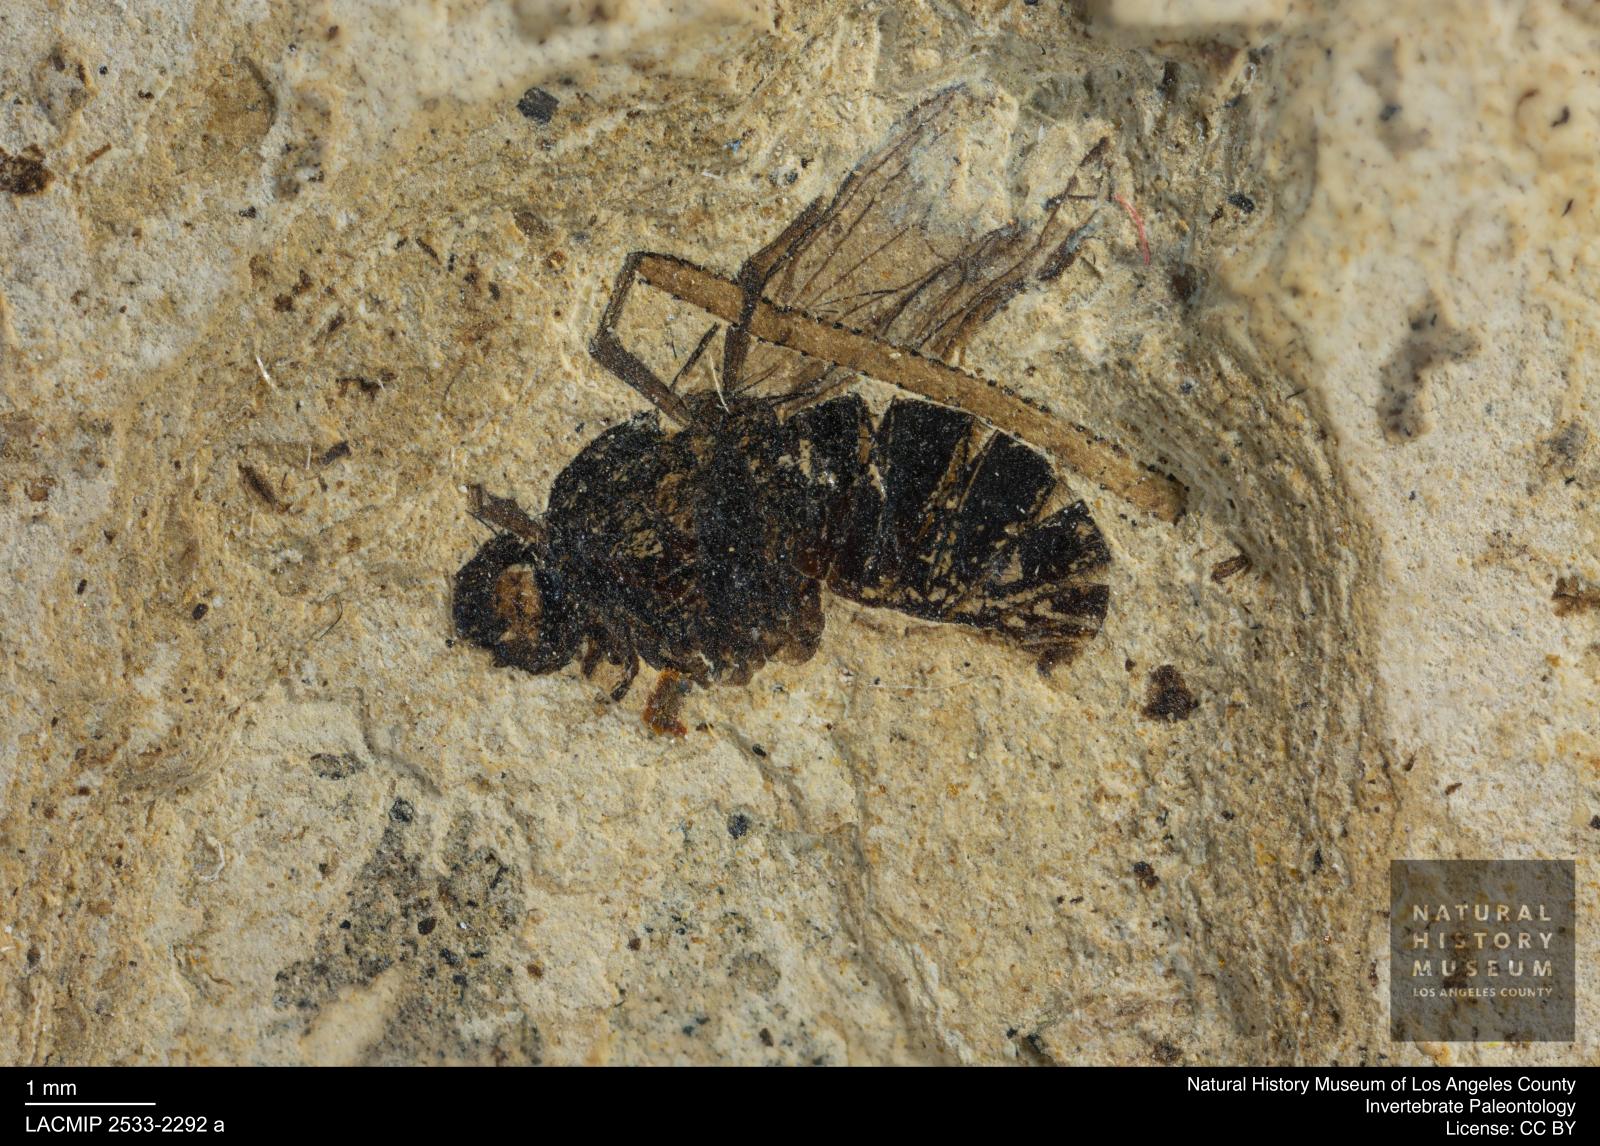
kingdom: Animalia
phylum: Arthropoda
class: Insecta
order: Diptera
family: Heleomyzidae
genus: Heleomyza
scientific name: Heleomyza Leria bauckhorni
